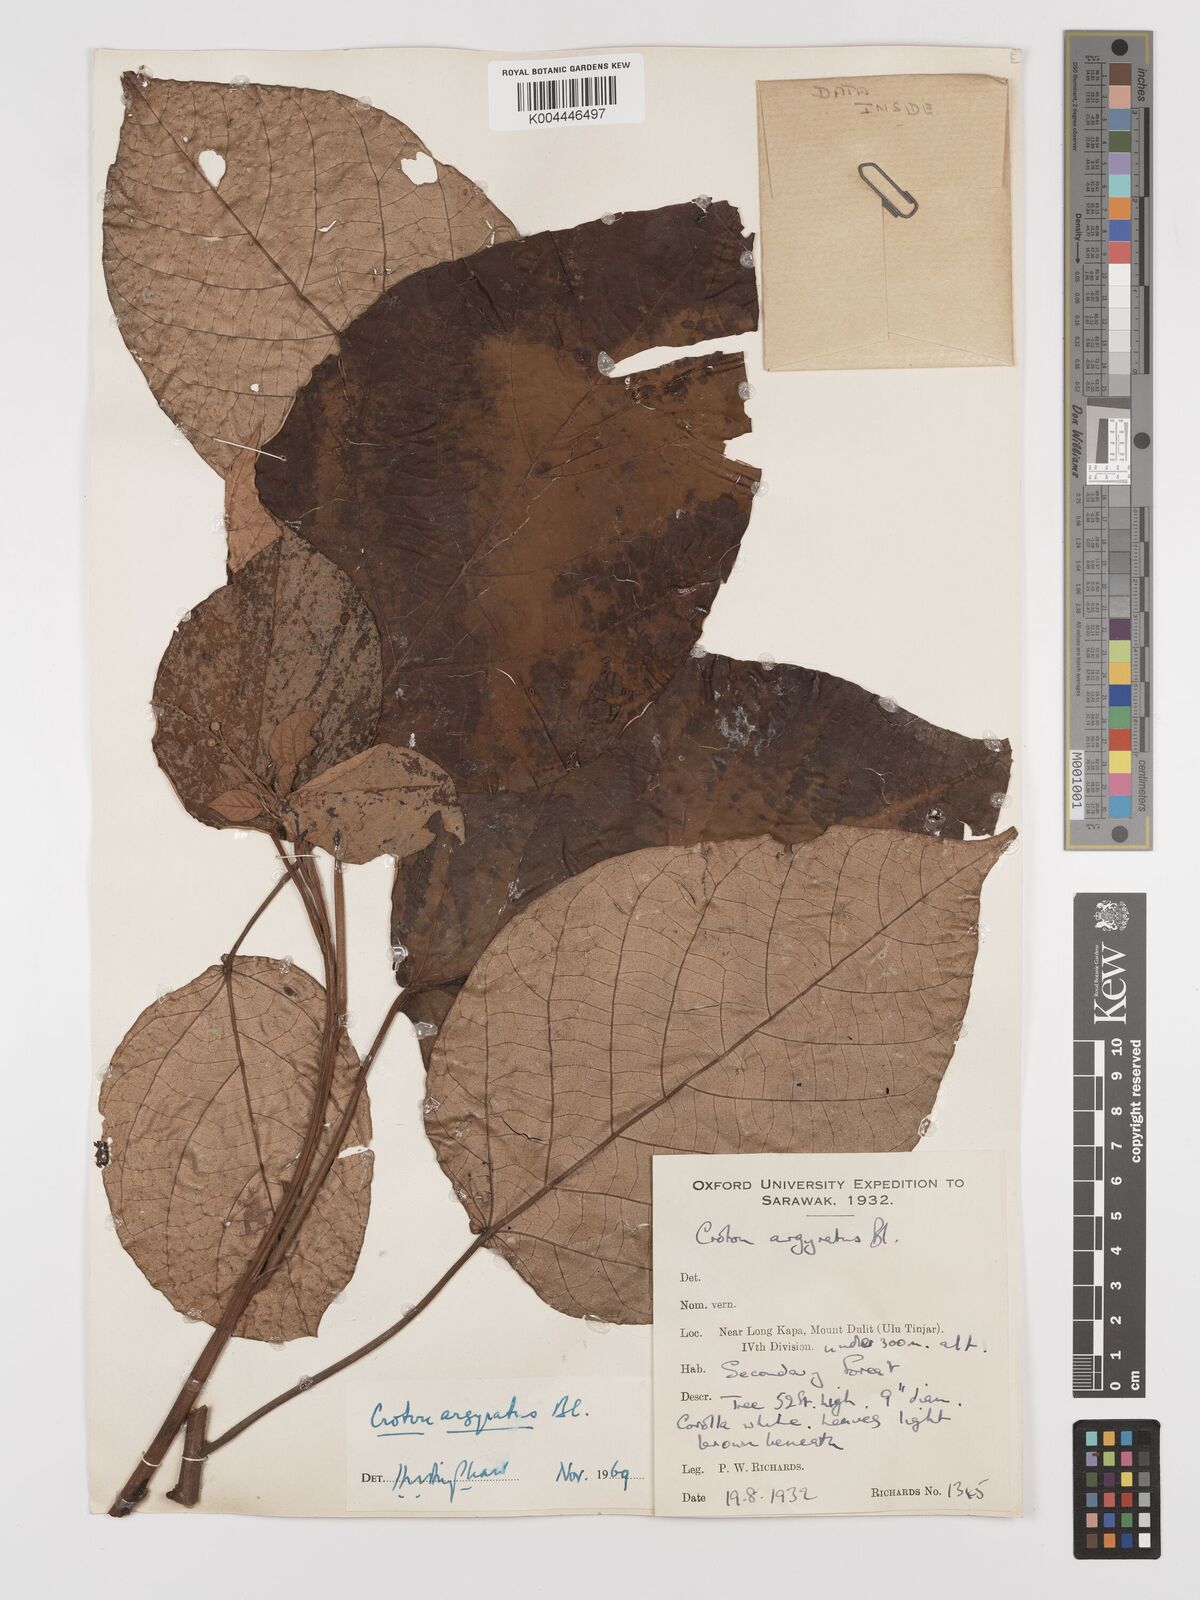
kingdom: Plantae
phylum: Tracheophyta
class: Magnoliopsida
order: Malpighiales
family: Euphorbiaceae
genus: Croton
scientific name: Croton argyratus
